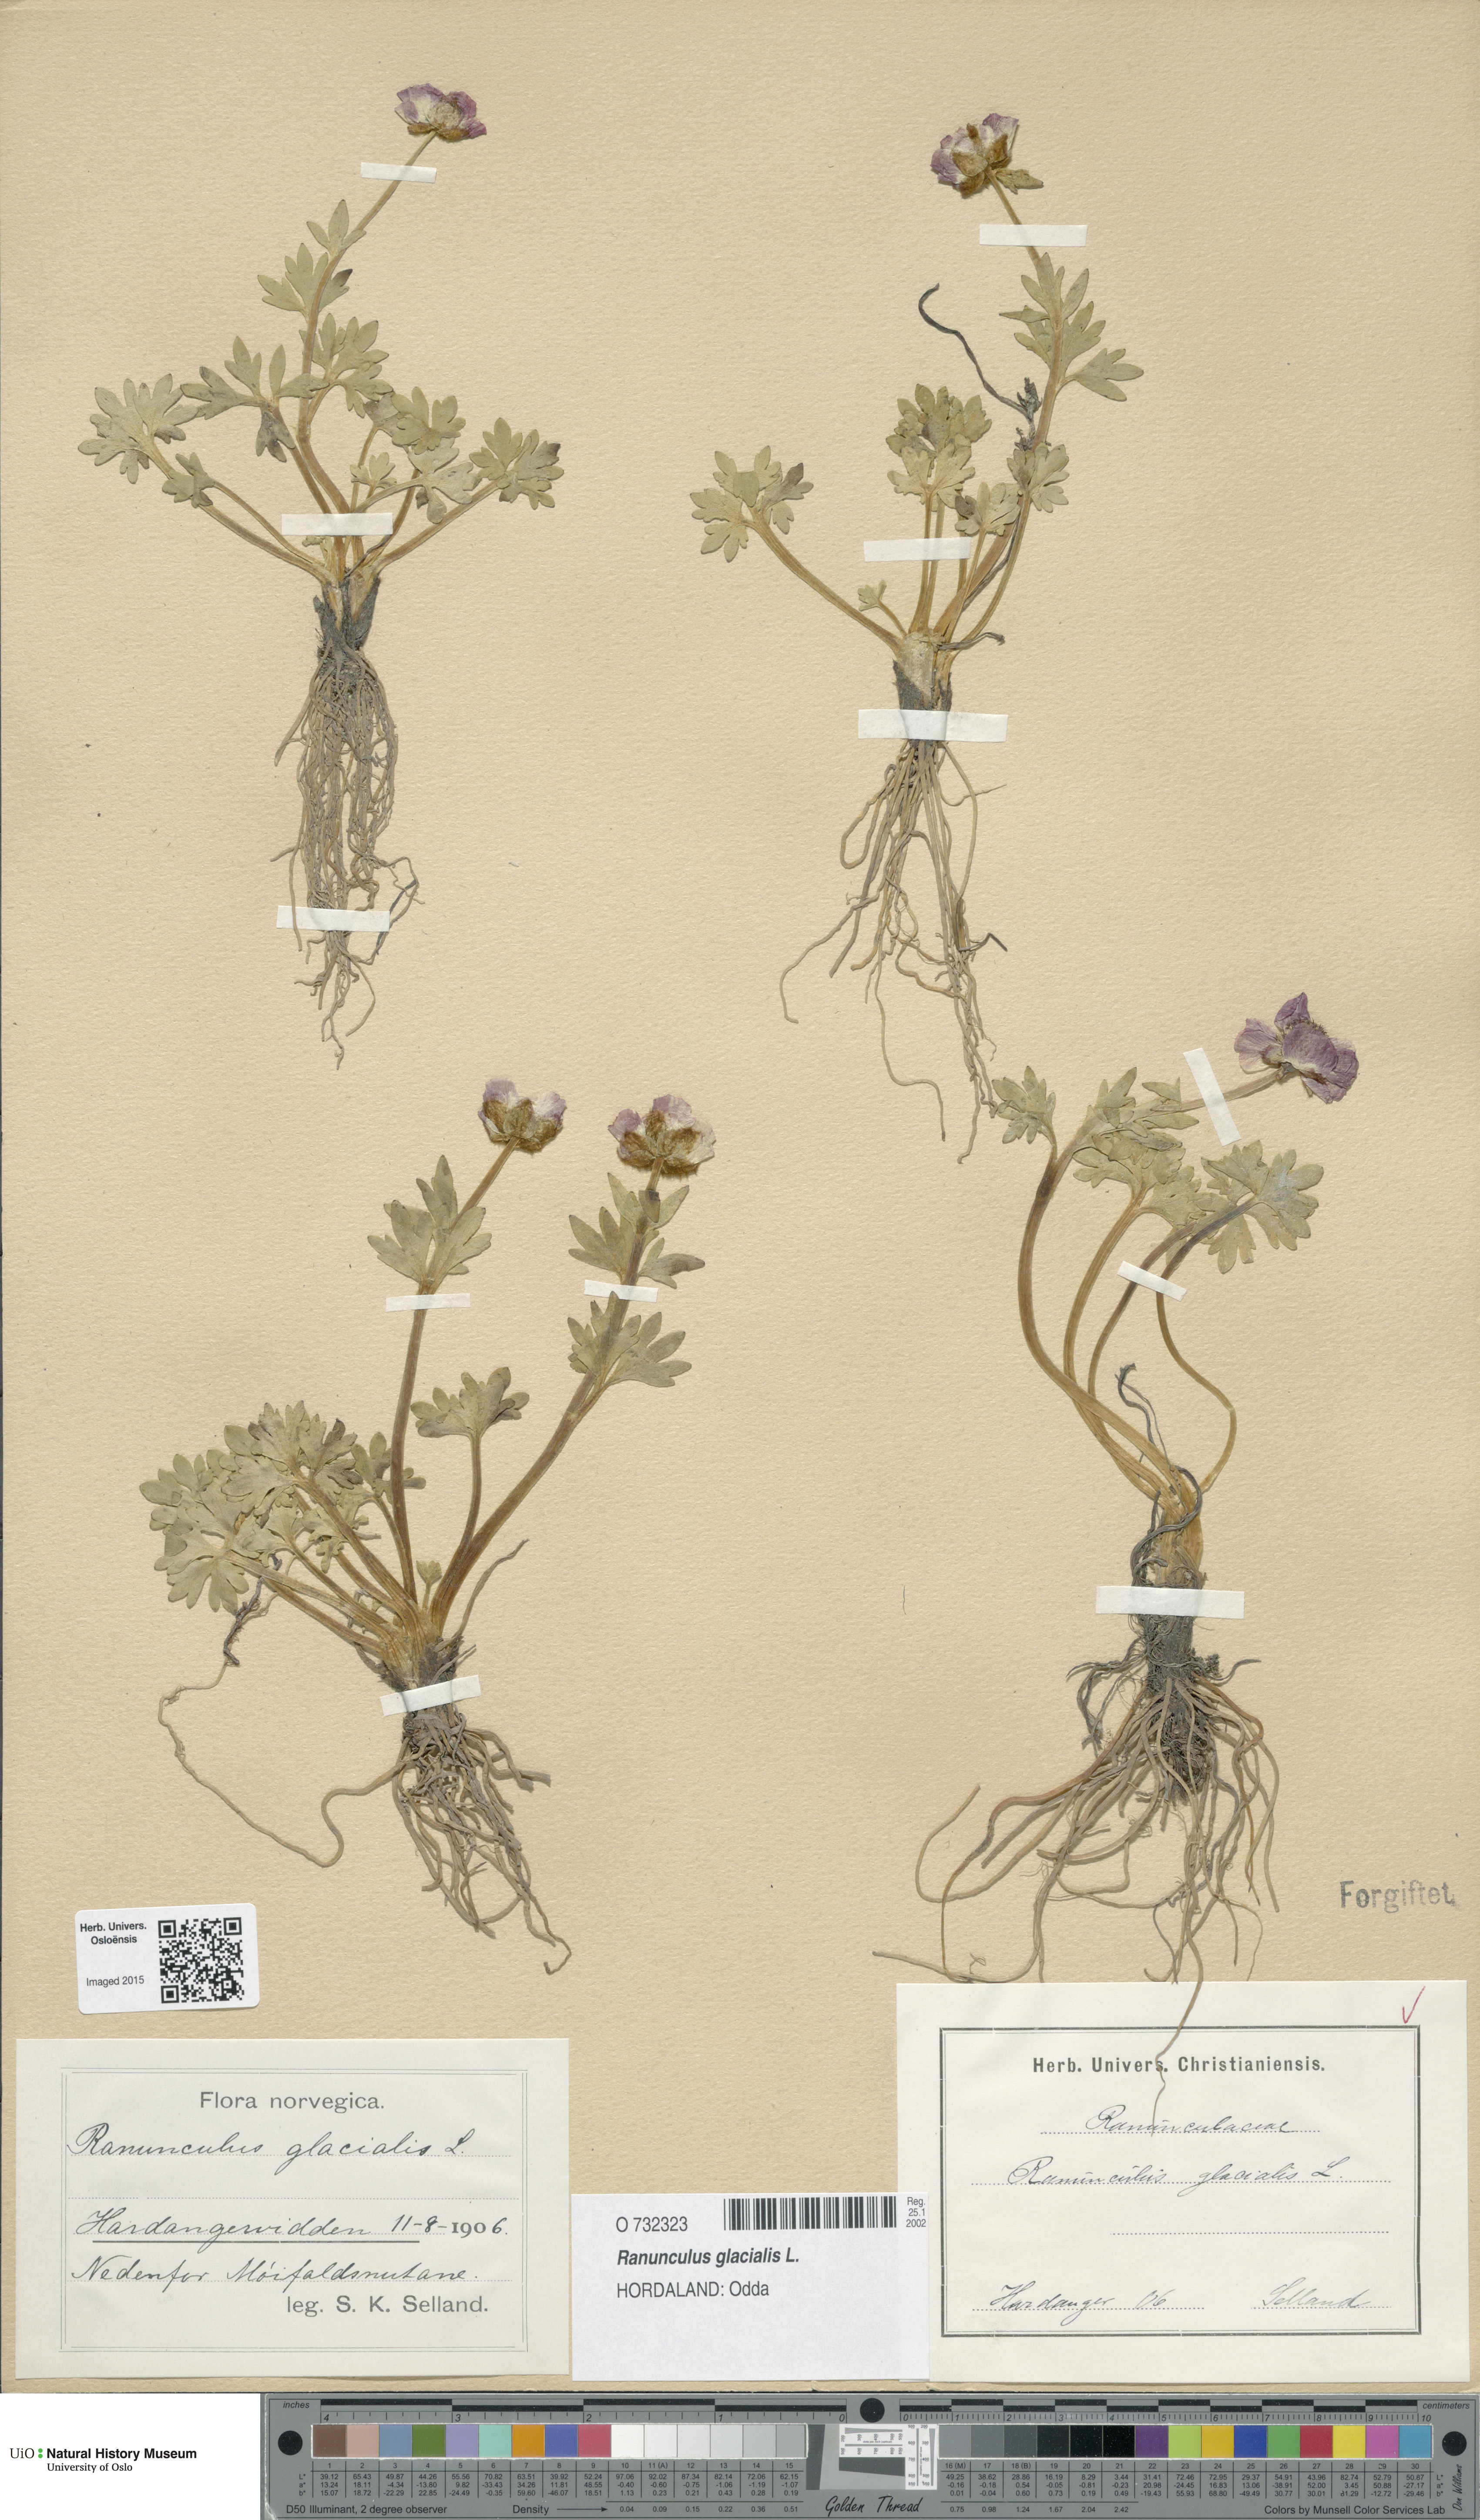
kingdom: Plantae
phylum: Tracheophyta
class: Magnoliopsida
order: Ranunculales
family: Ranunculaceae
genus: Ranunculus
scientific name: Ranunculus glacialis
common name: Glacier buttercup
